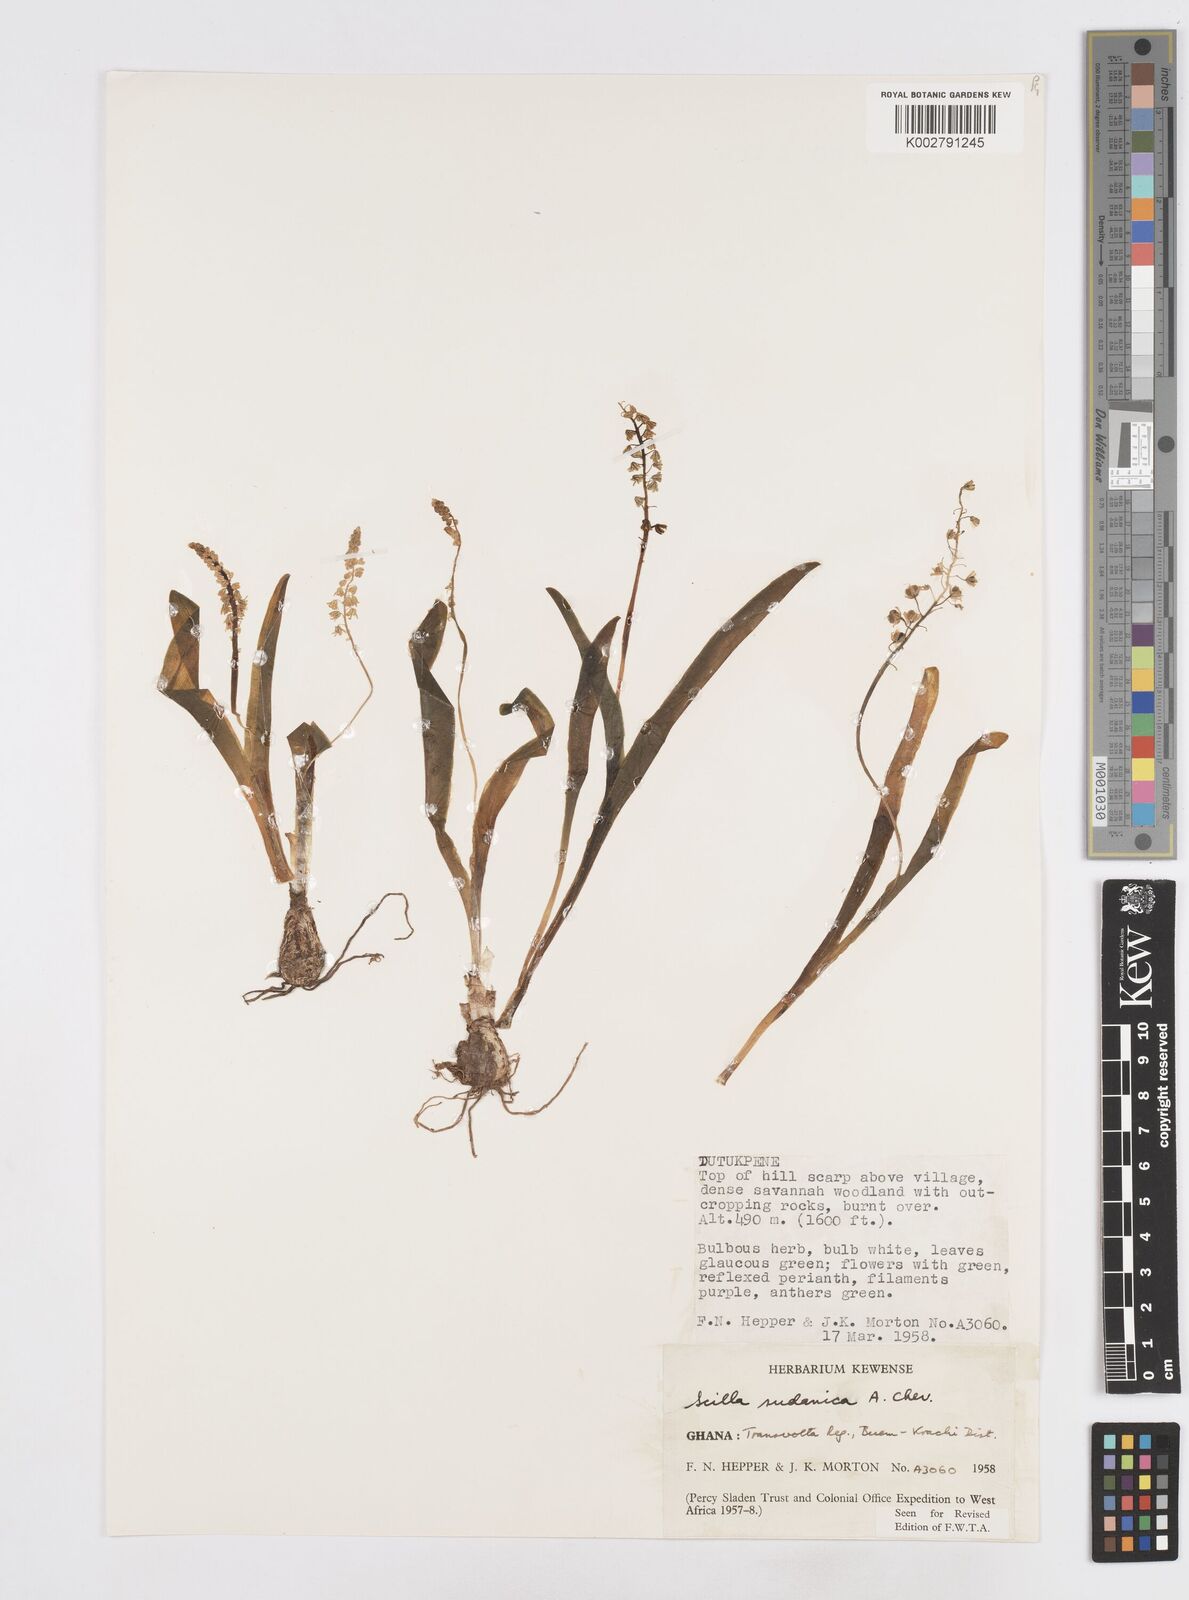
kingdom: Plantae
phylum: Tracheophyta
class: Liliopsida
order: Asparagales
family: Asparagaceae
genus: Ledebouria
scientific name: Ledebouria sudanica
